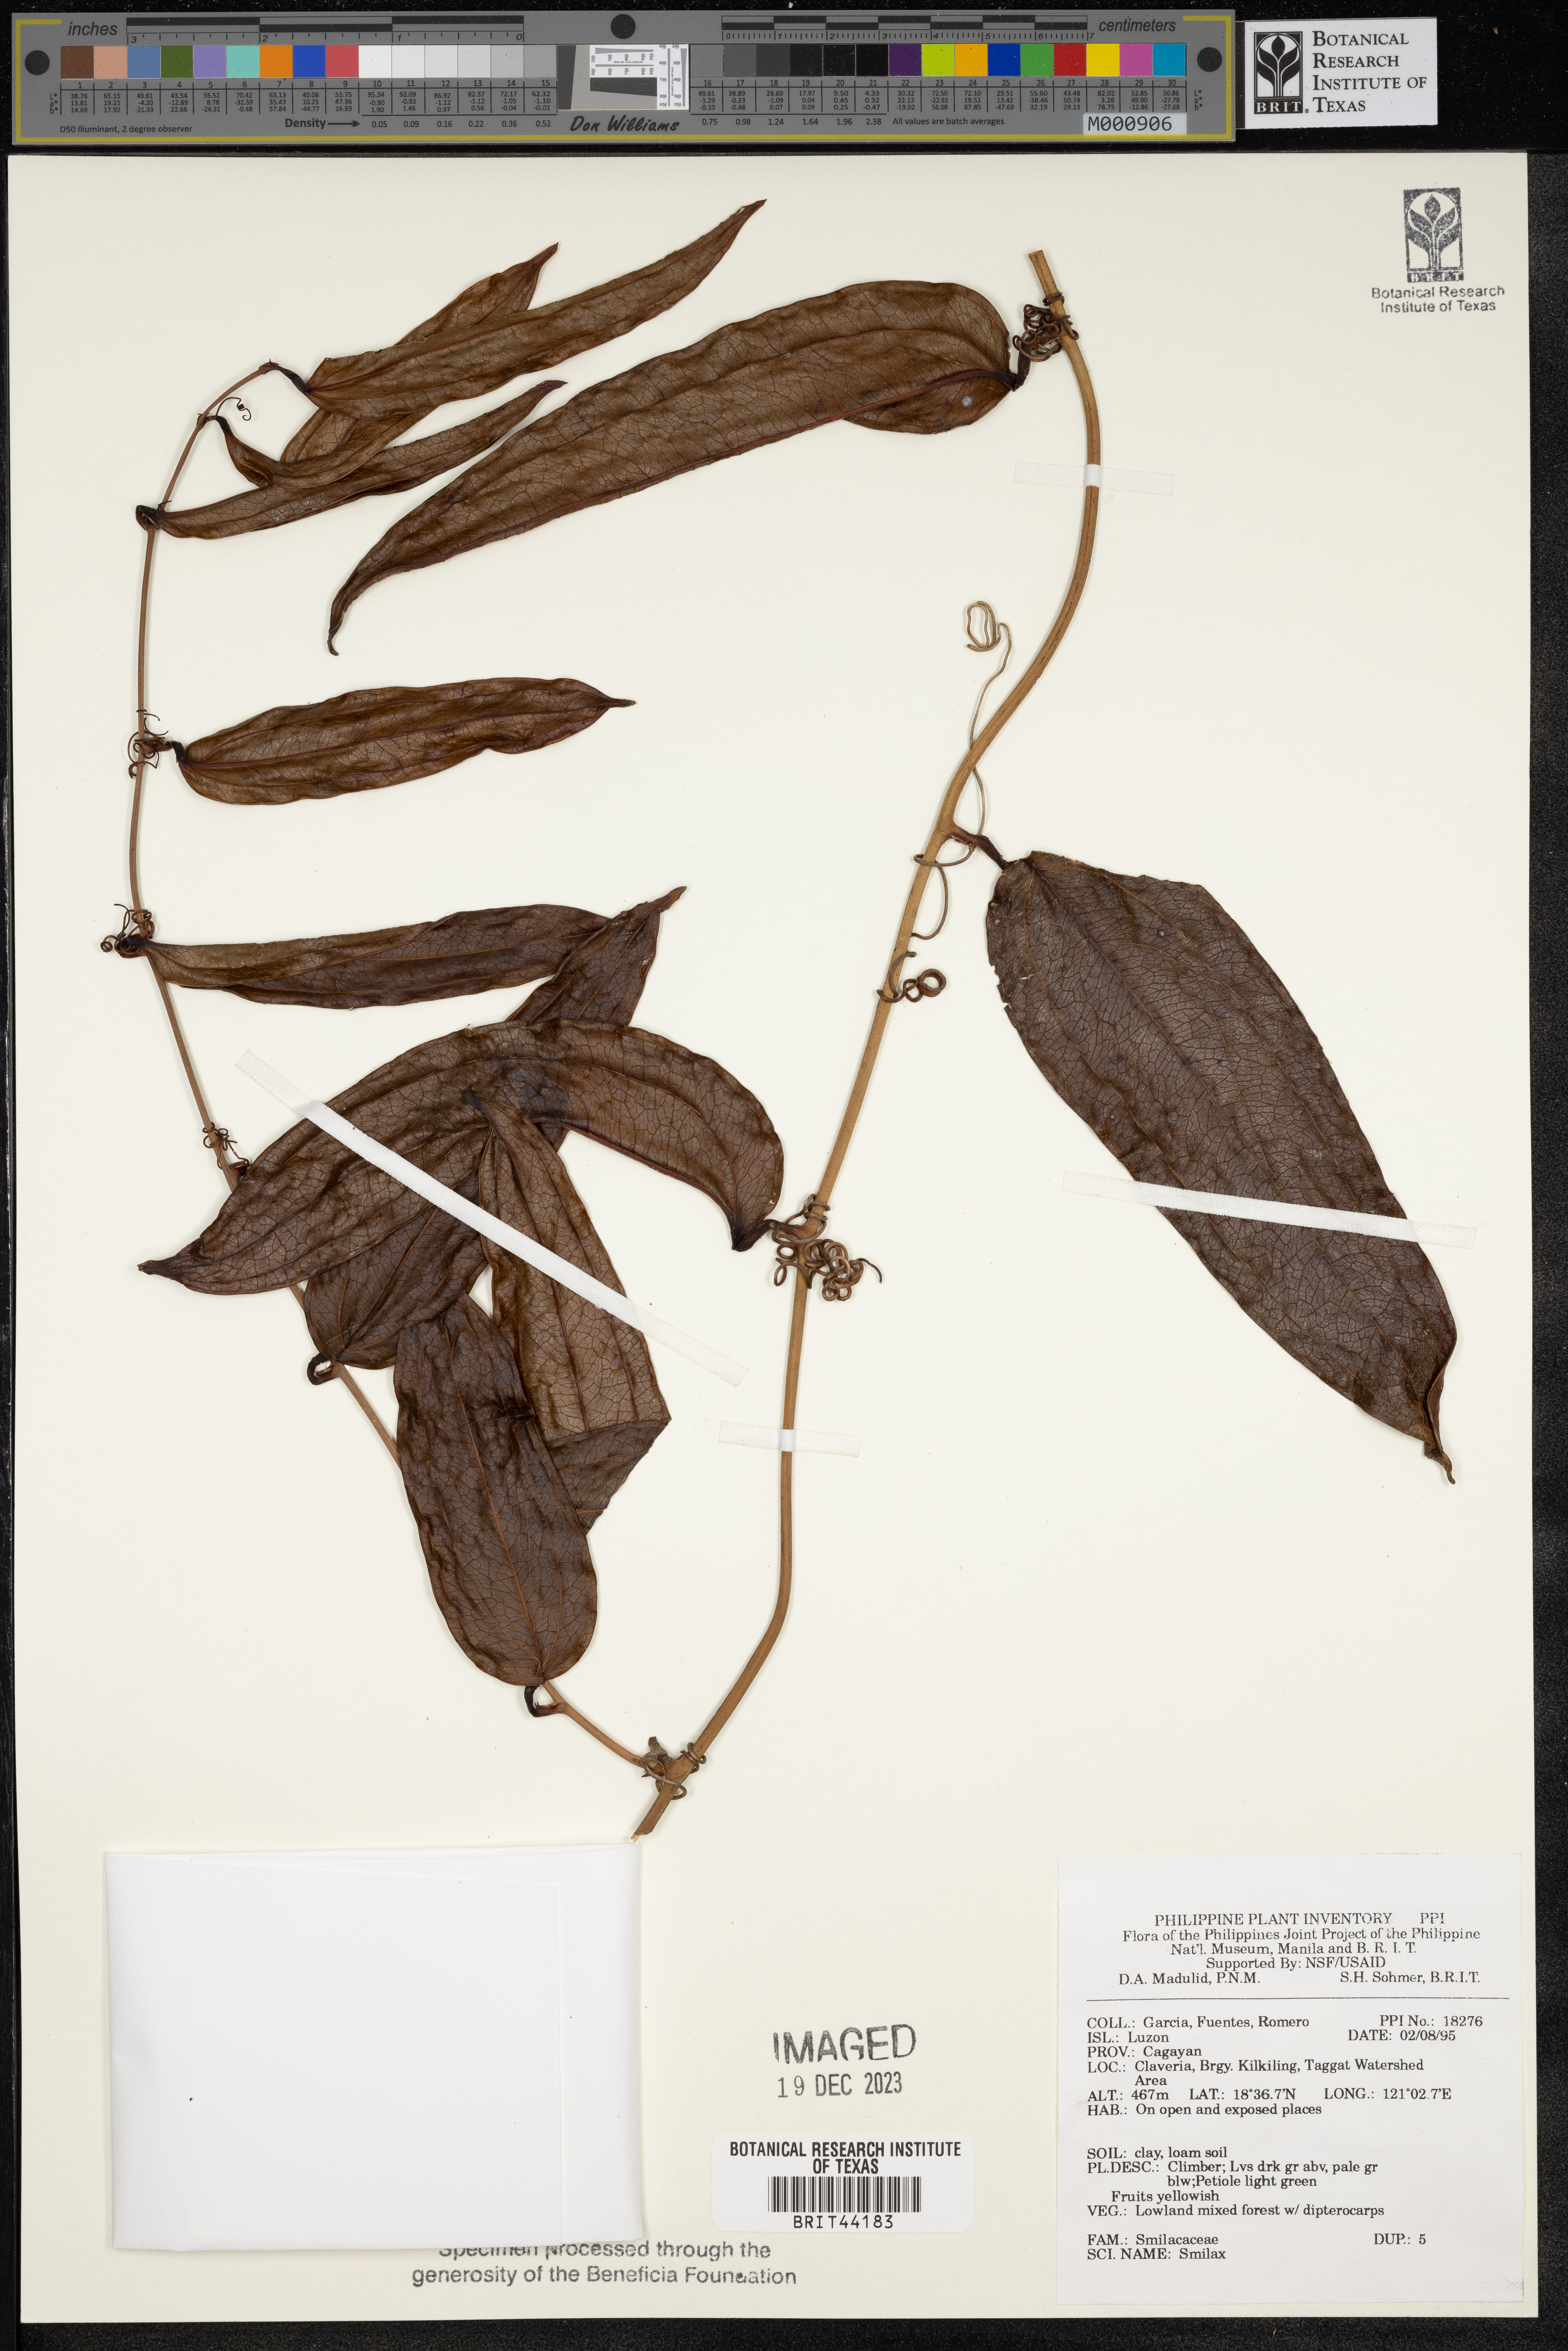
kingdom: Plantae
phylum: Tracheophyta
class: Liliopsida
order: Liliales
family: Smilacaceae
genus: Smilax
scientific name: Smilax
